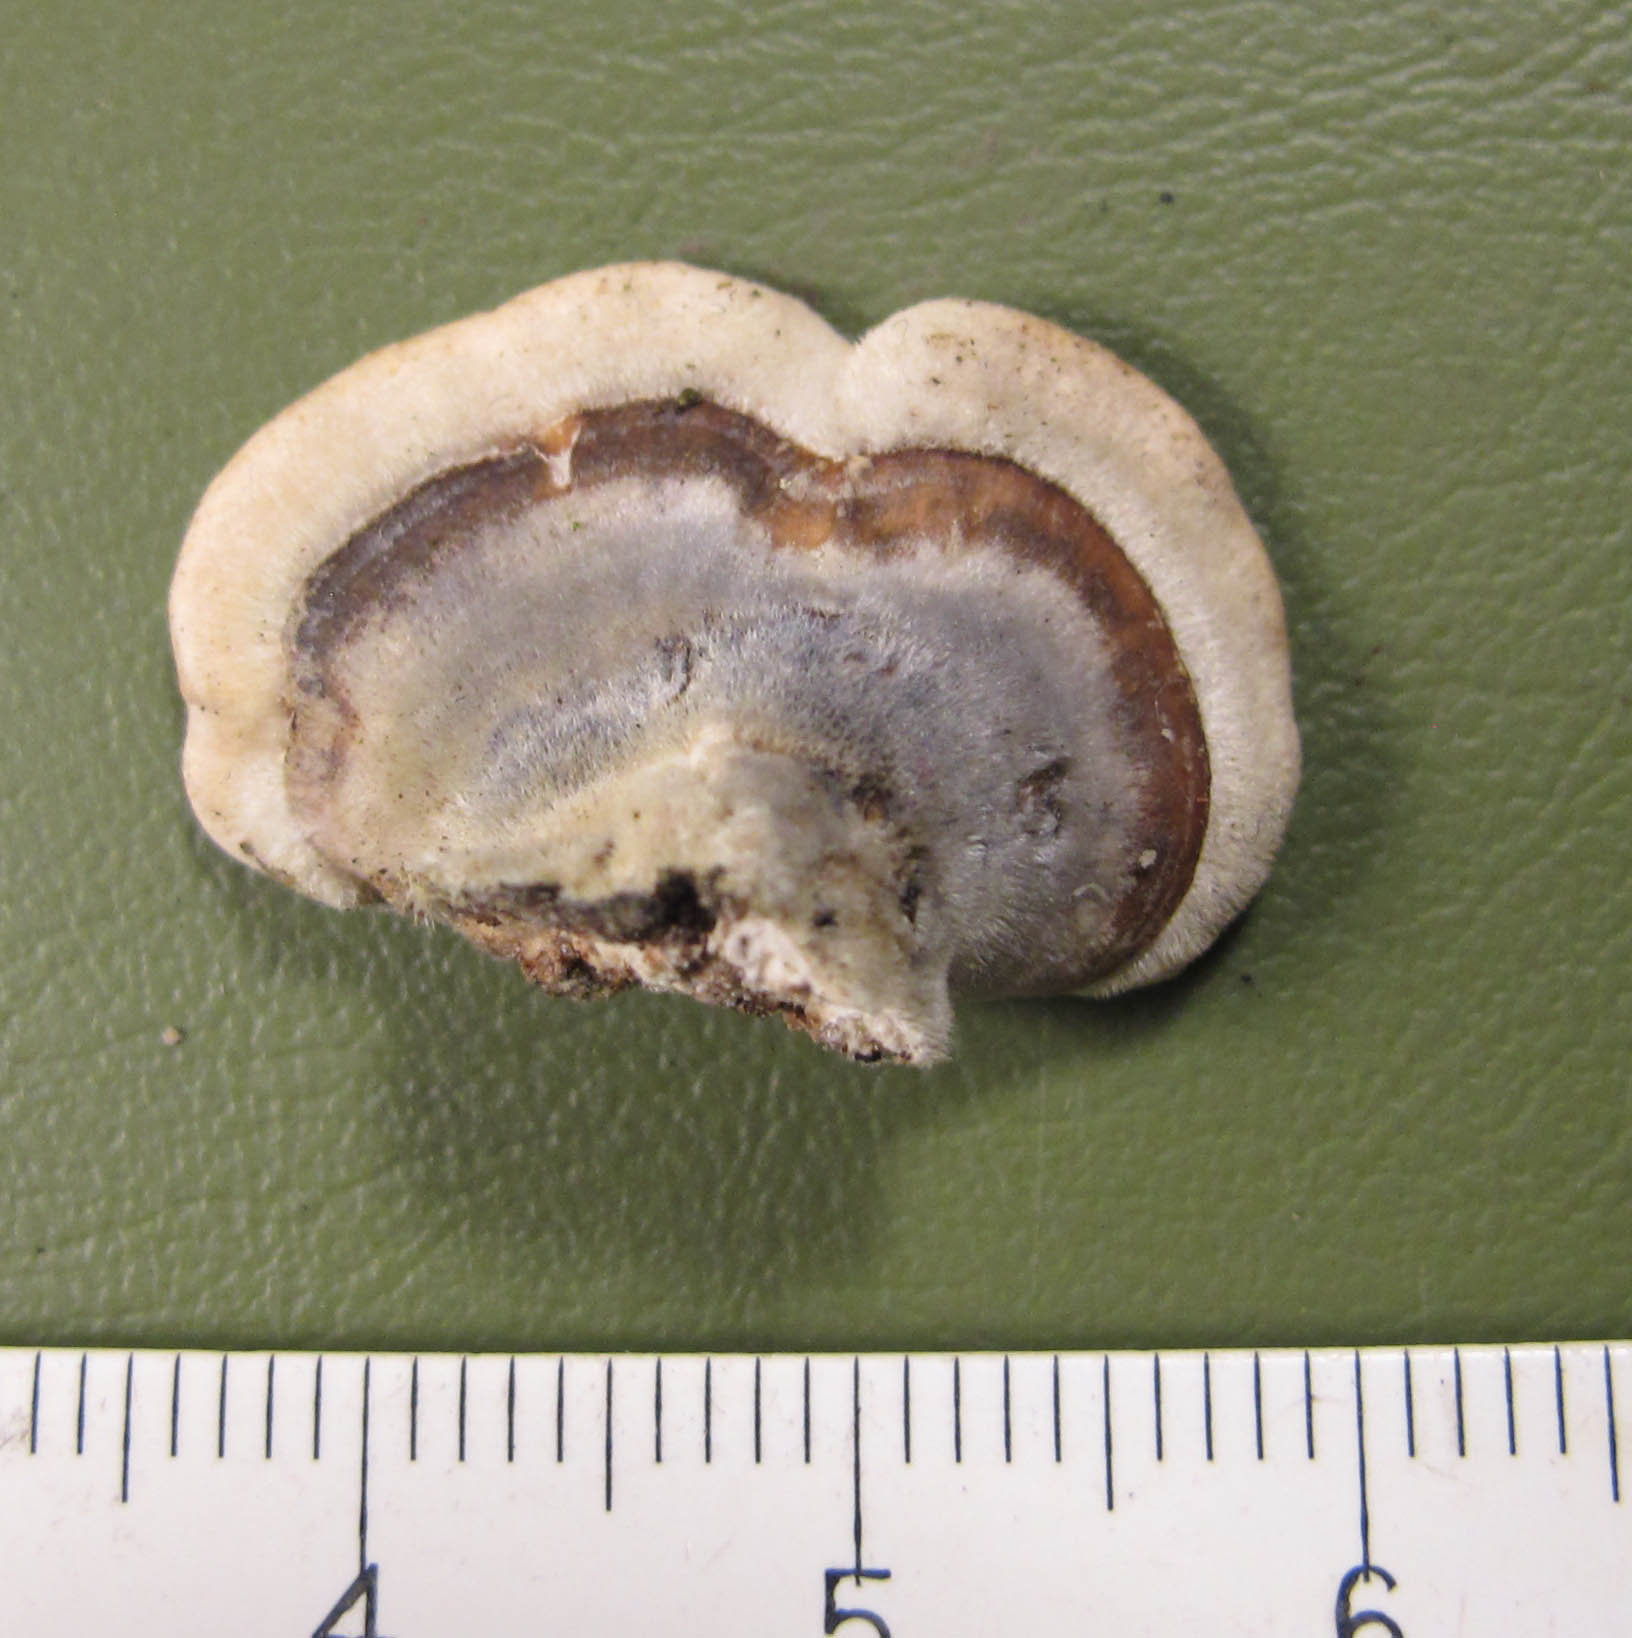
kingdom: Fungi
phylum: Basidiomycota
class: Agaricomycetes
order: Polyporales
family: Polyporaceae
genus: Trametes
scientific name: Trametes versicolor
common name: broget læderporesvamp
